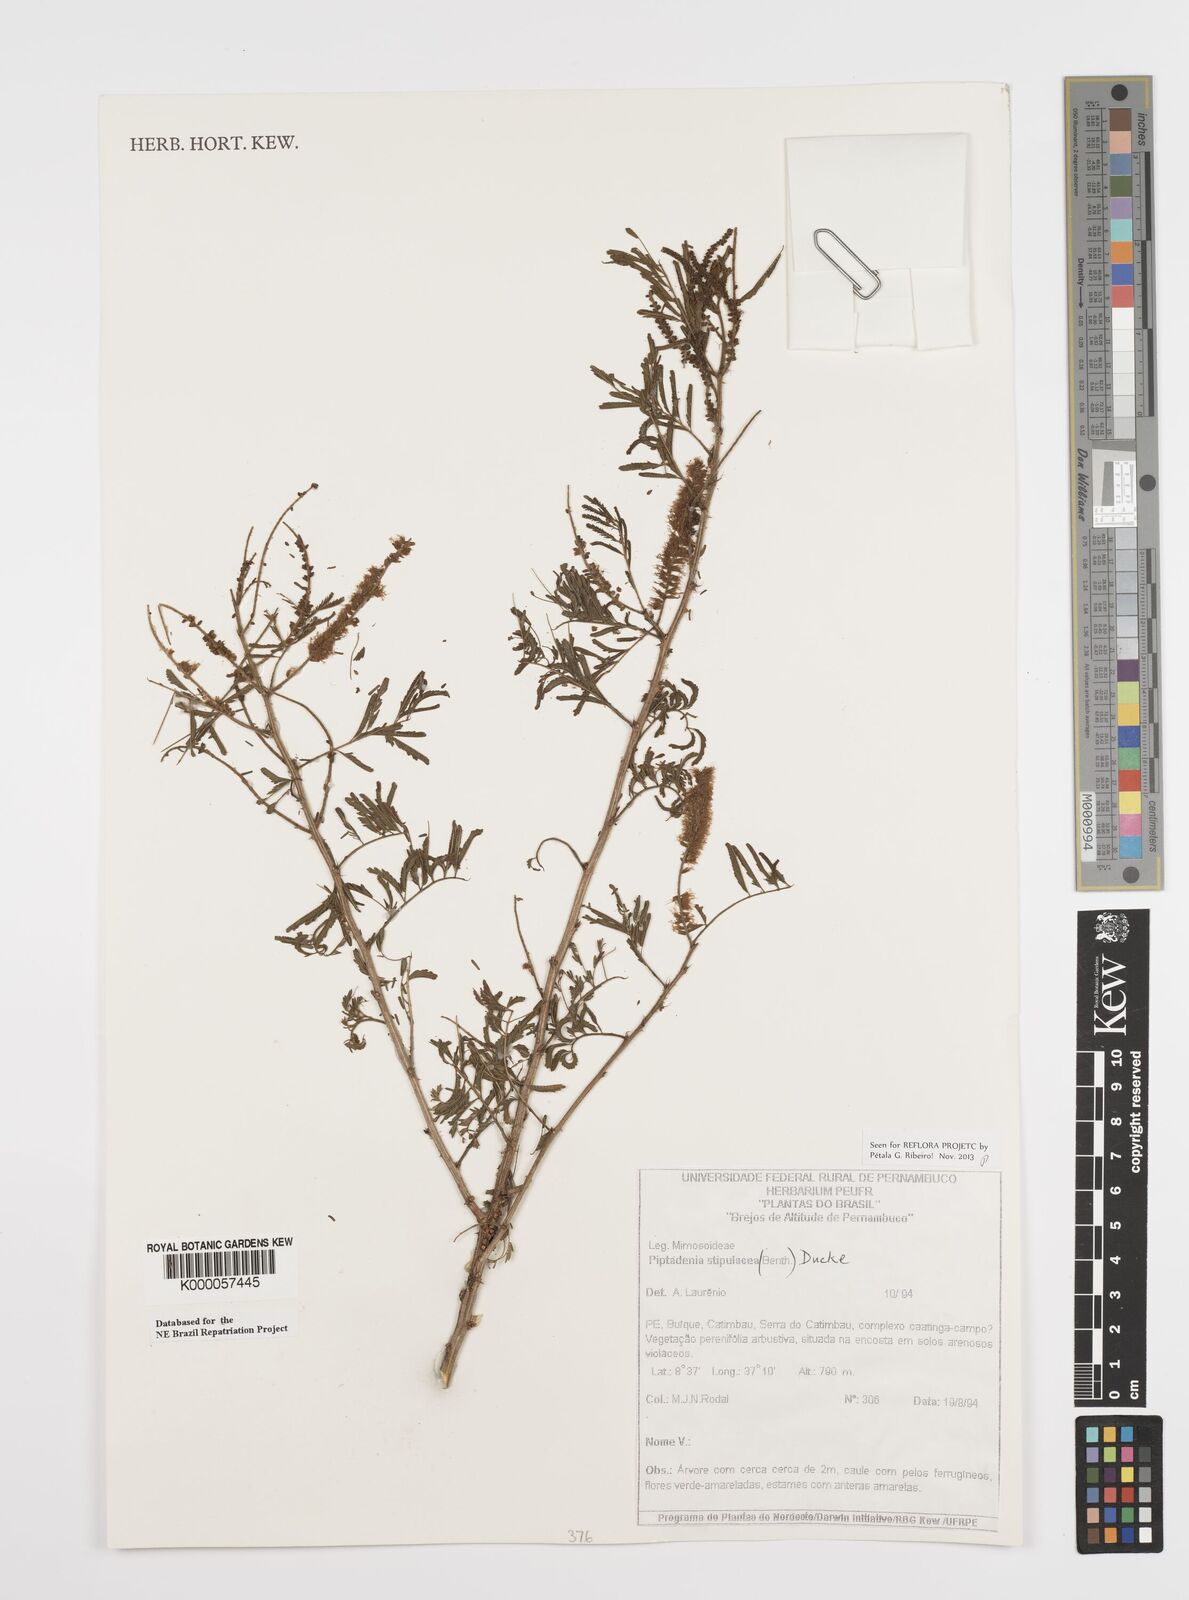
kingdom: Plantae
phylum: Tracheophyta
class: Magnoliopsida
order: Fabales
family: Fabaceae
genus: Piptadenia
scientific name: Piptadenia retusa
